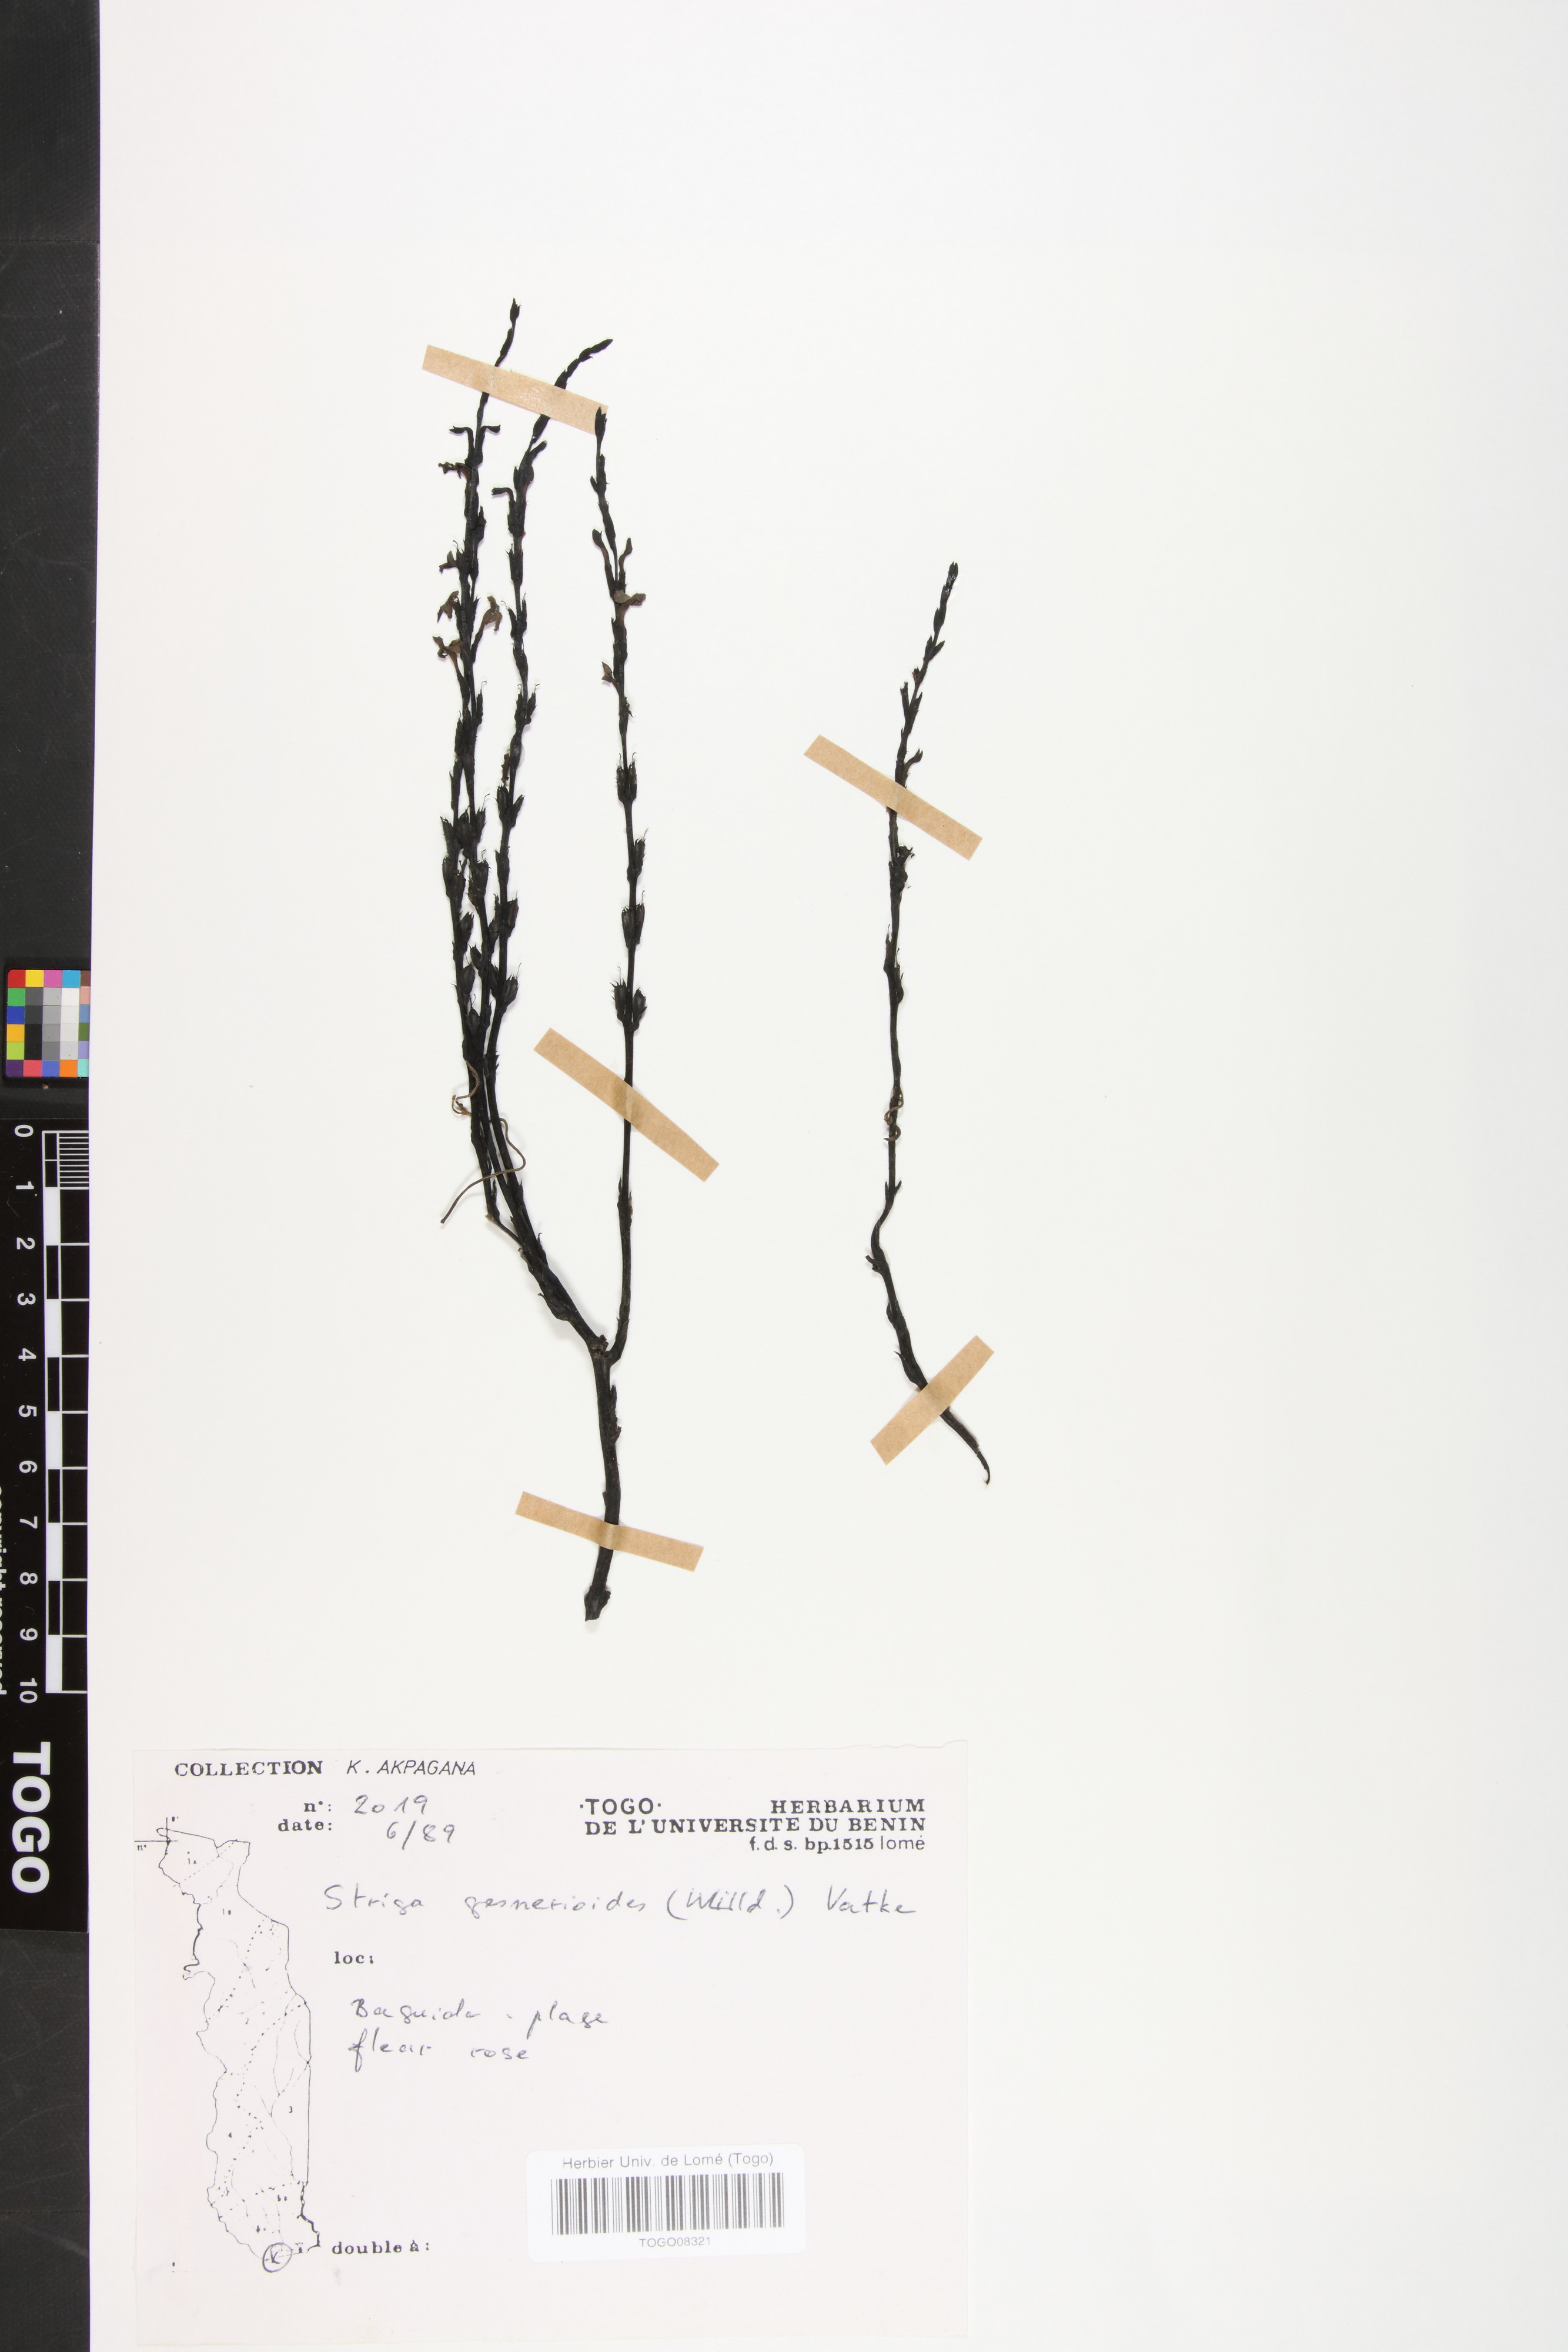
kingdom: Plantae
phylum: Tracheophyta
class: Magnoliopsida
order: Lamiales
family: Orobanchaceae
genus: Striga
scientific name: Striga gesnerioides
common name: Cowpea witchweed
